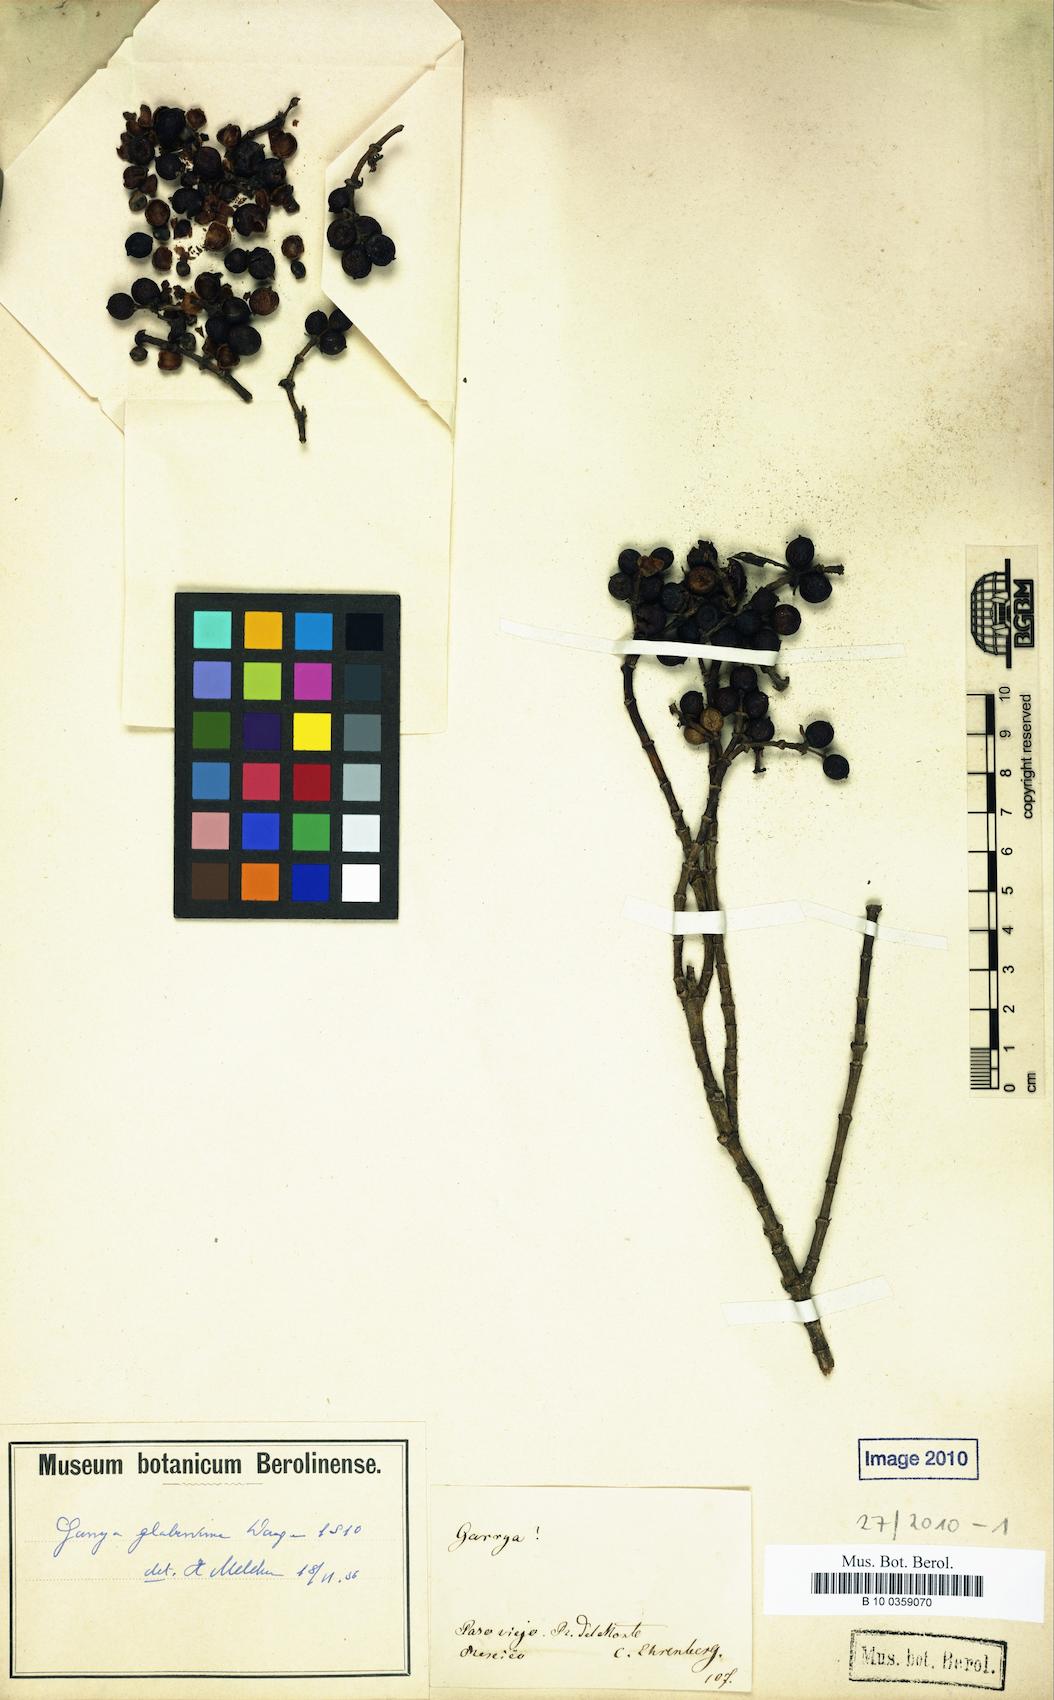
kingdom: Plantae
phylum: Tracheophyta
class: Magnoliopsida
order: Garryales
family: Garryaceae
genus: Garrya
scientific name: Garrya glaberrima
